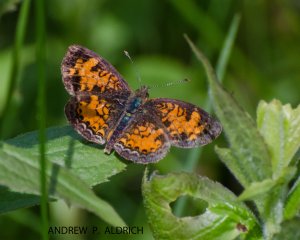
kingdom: Animalia
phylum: Arthropoda
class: Insecta
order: Lepidoptera
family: Nymphalidae
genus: Phyciodes
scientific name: Phyciodes tharos
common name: Pearl Crescent
